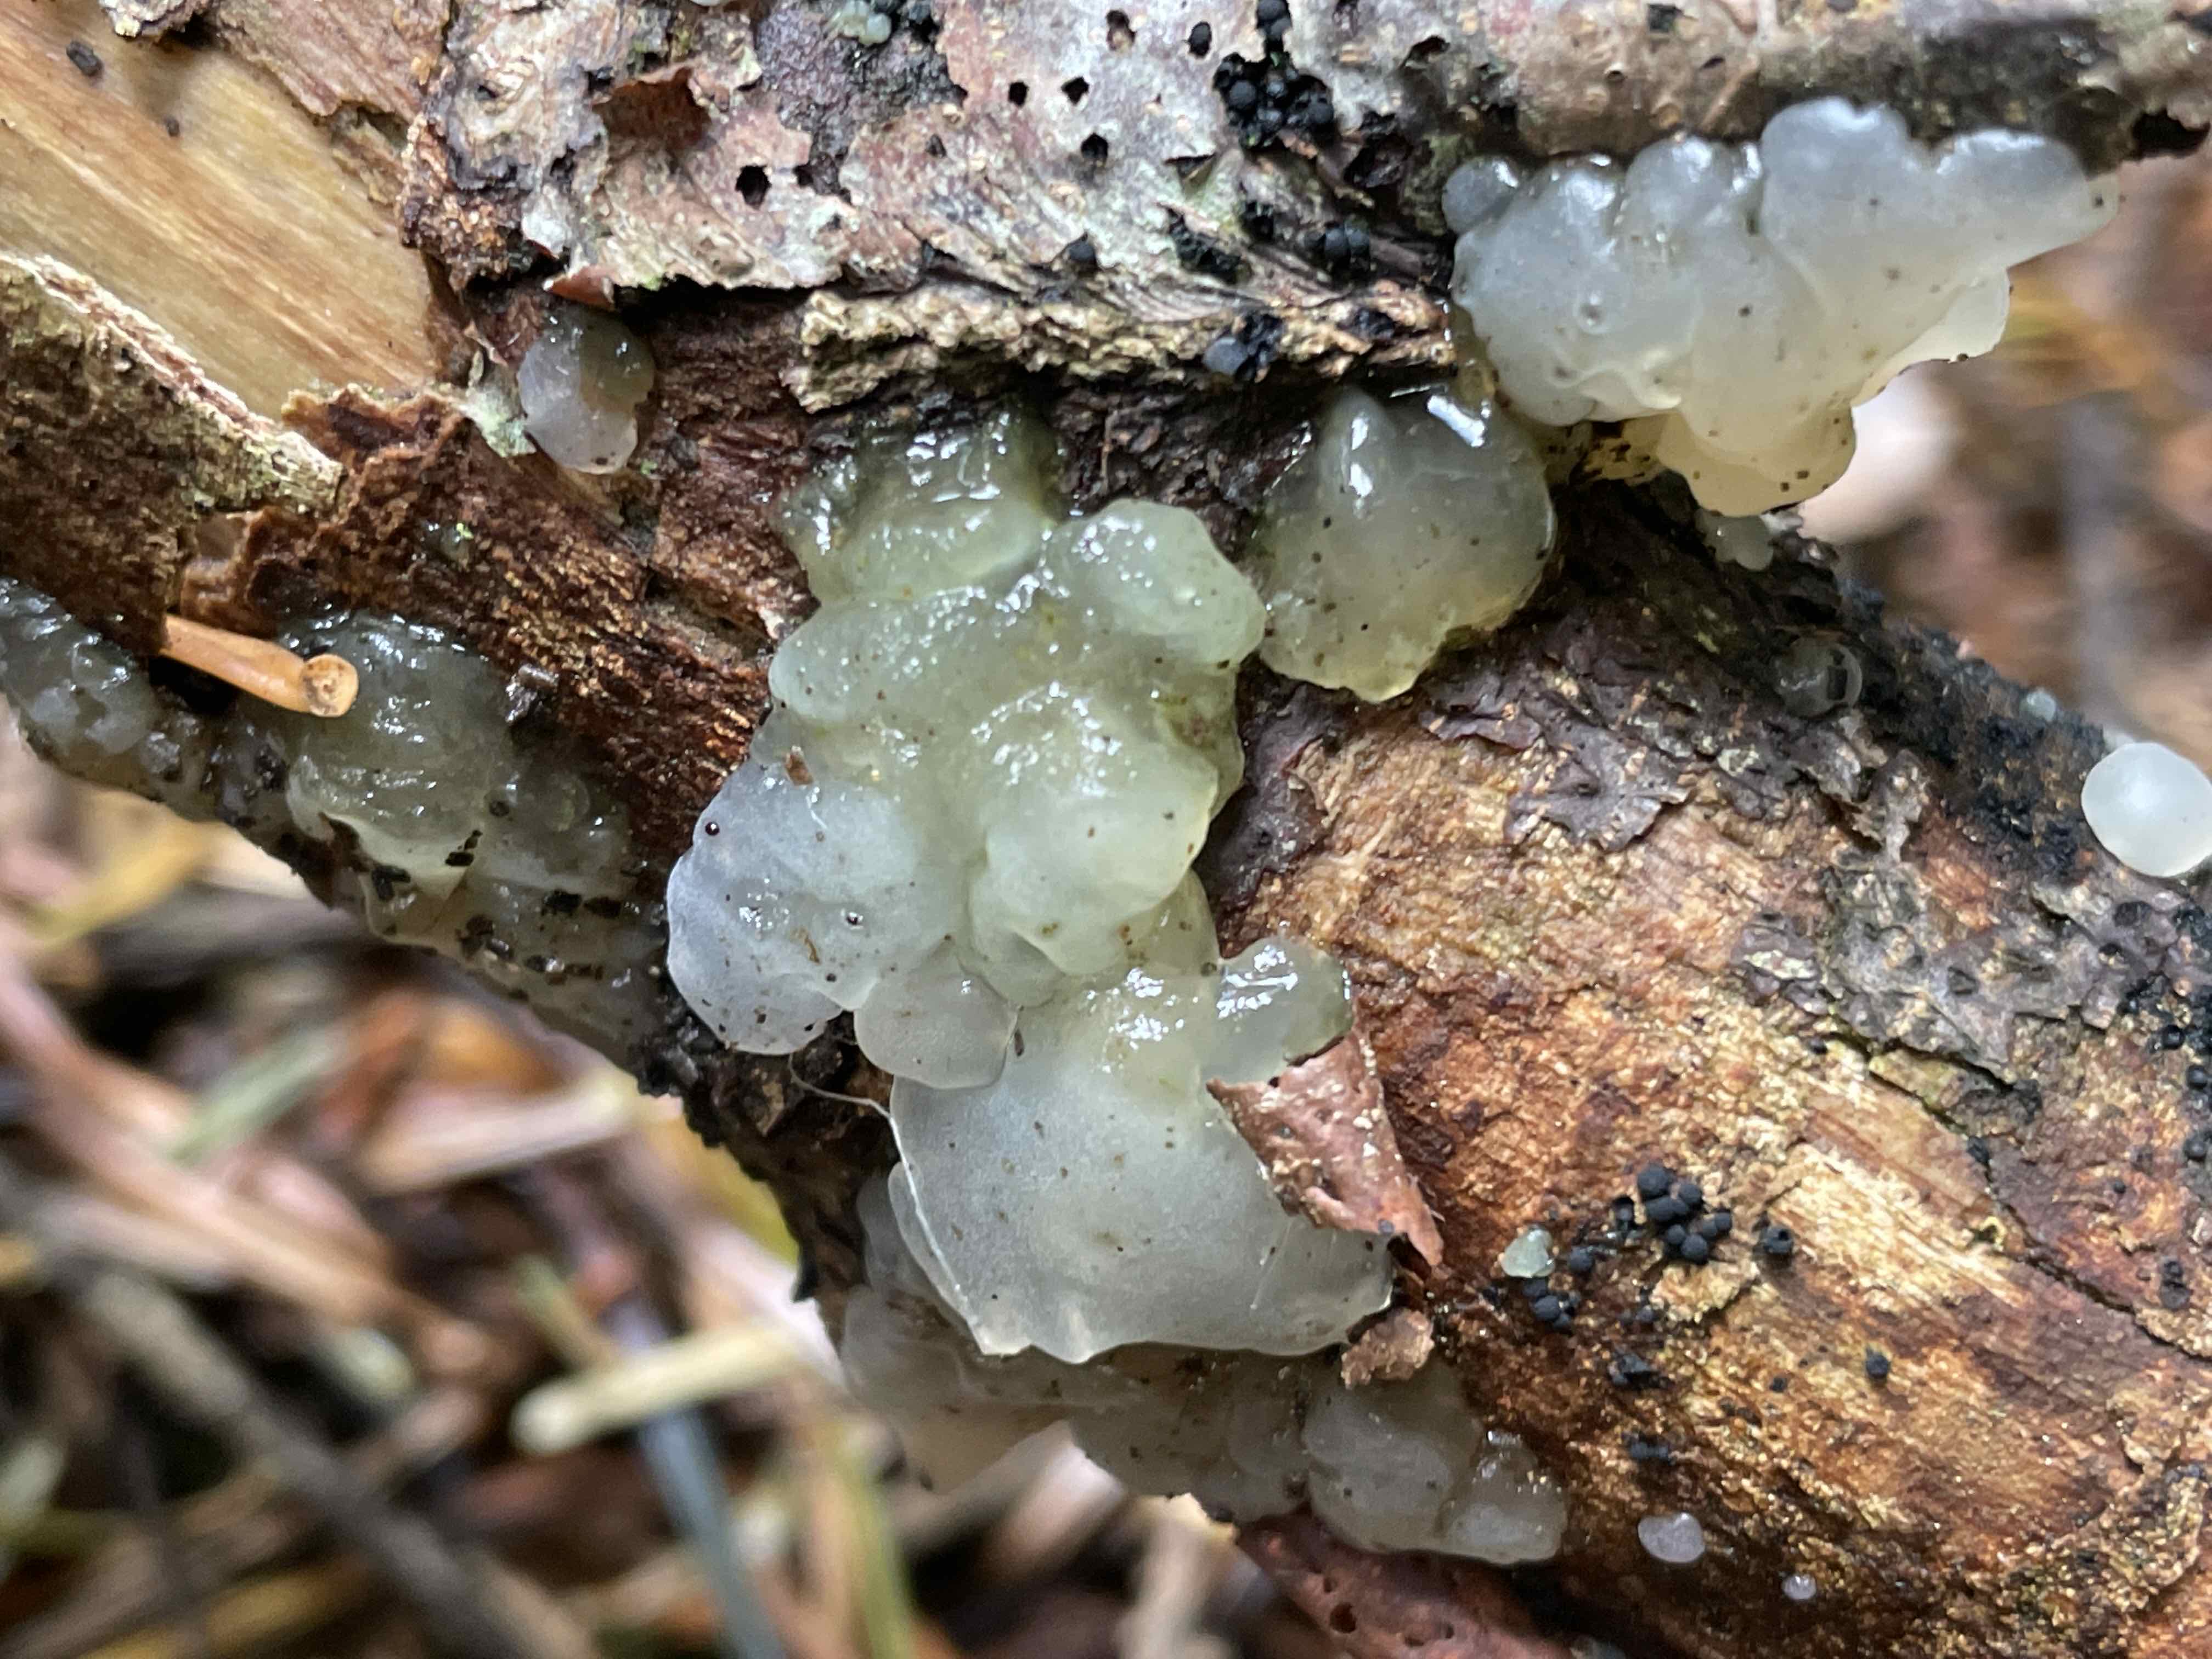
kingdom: Fungi
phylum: Basidiomycota
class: Agaricomycetes
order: Auriculariales
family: Hyaloriaceae
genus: Myxarium
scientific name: Myxarium
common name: bævretop
